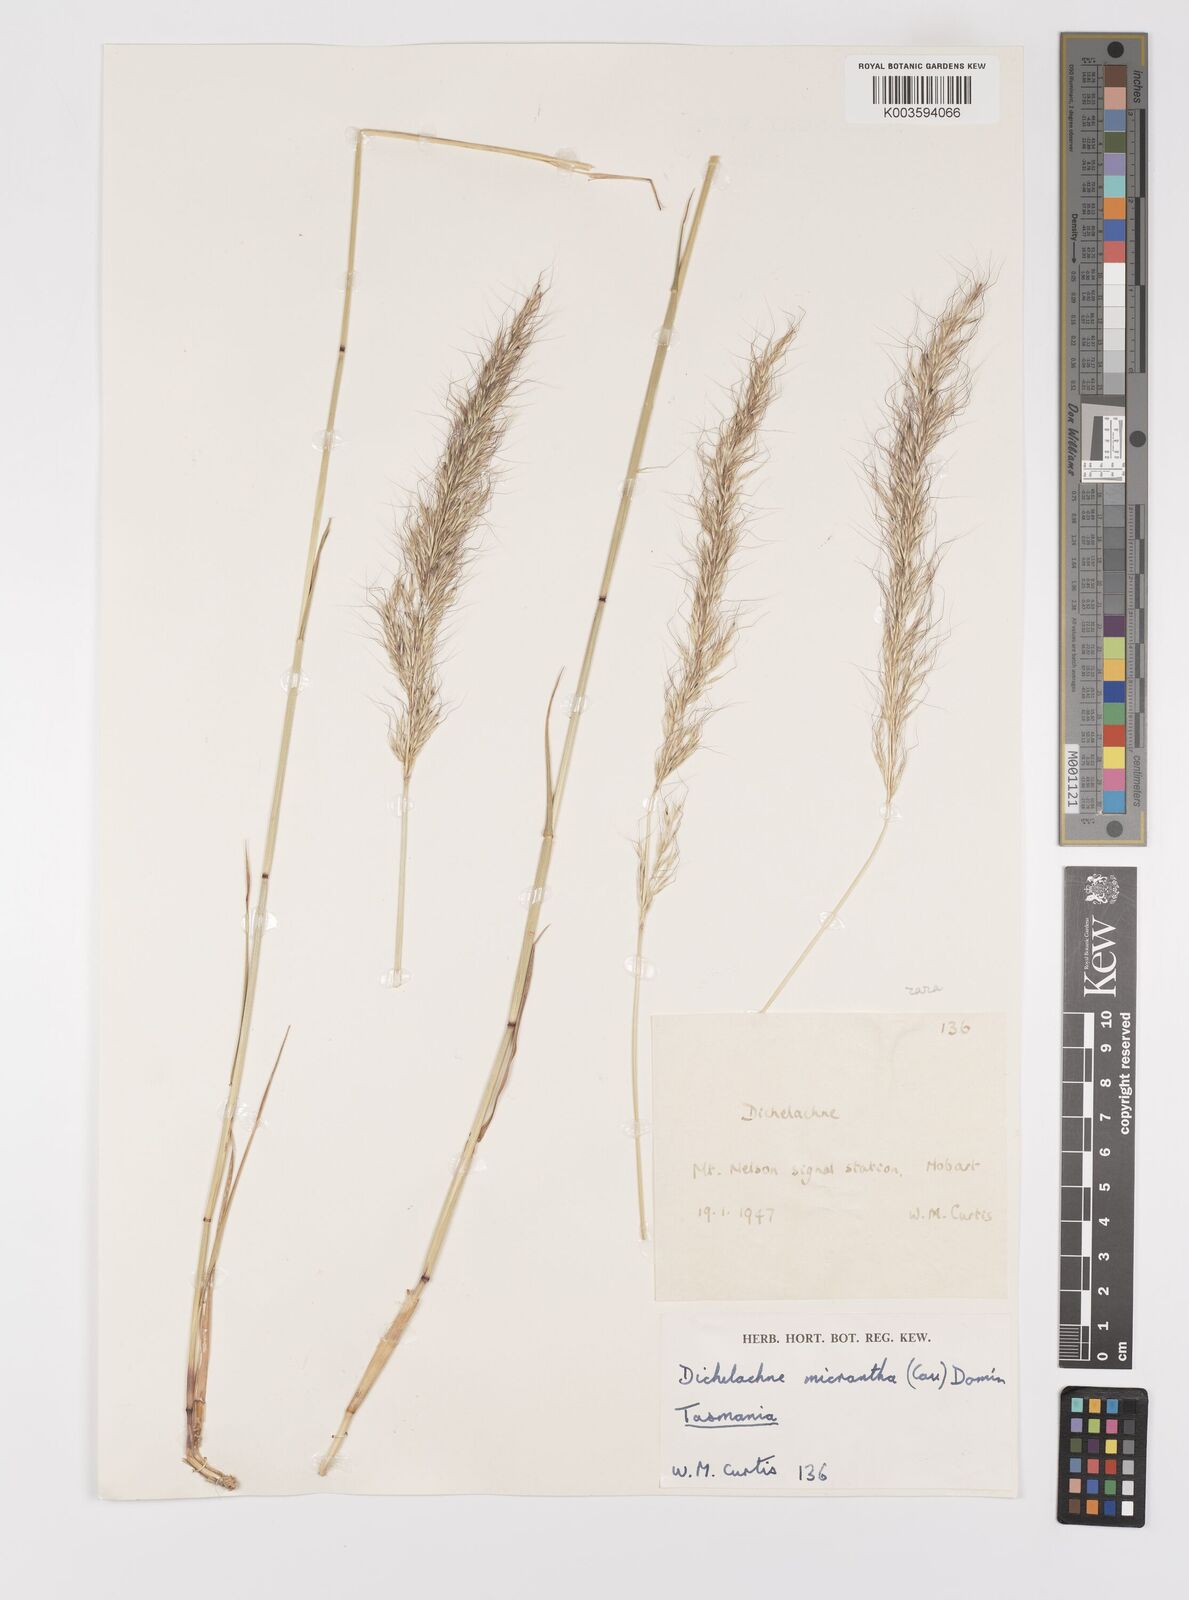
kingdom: Plantae
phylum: Tracheophyta
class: Liliopsida
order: Poales
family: Poaceae
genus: Dichelachne
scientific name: Dichelachne rara
